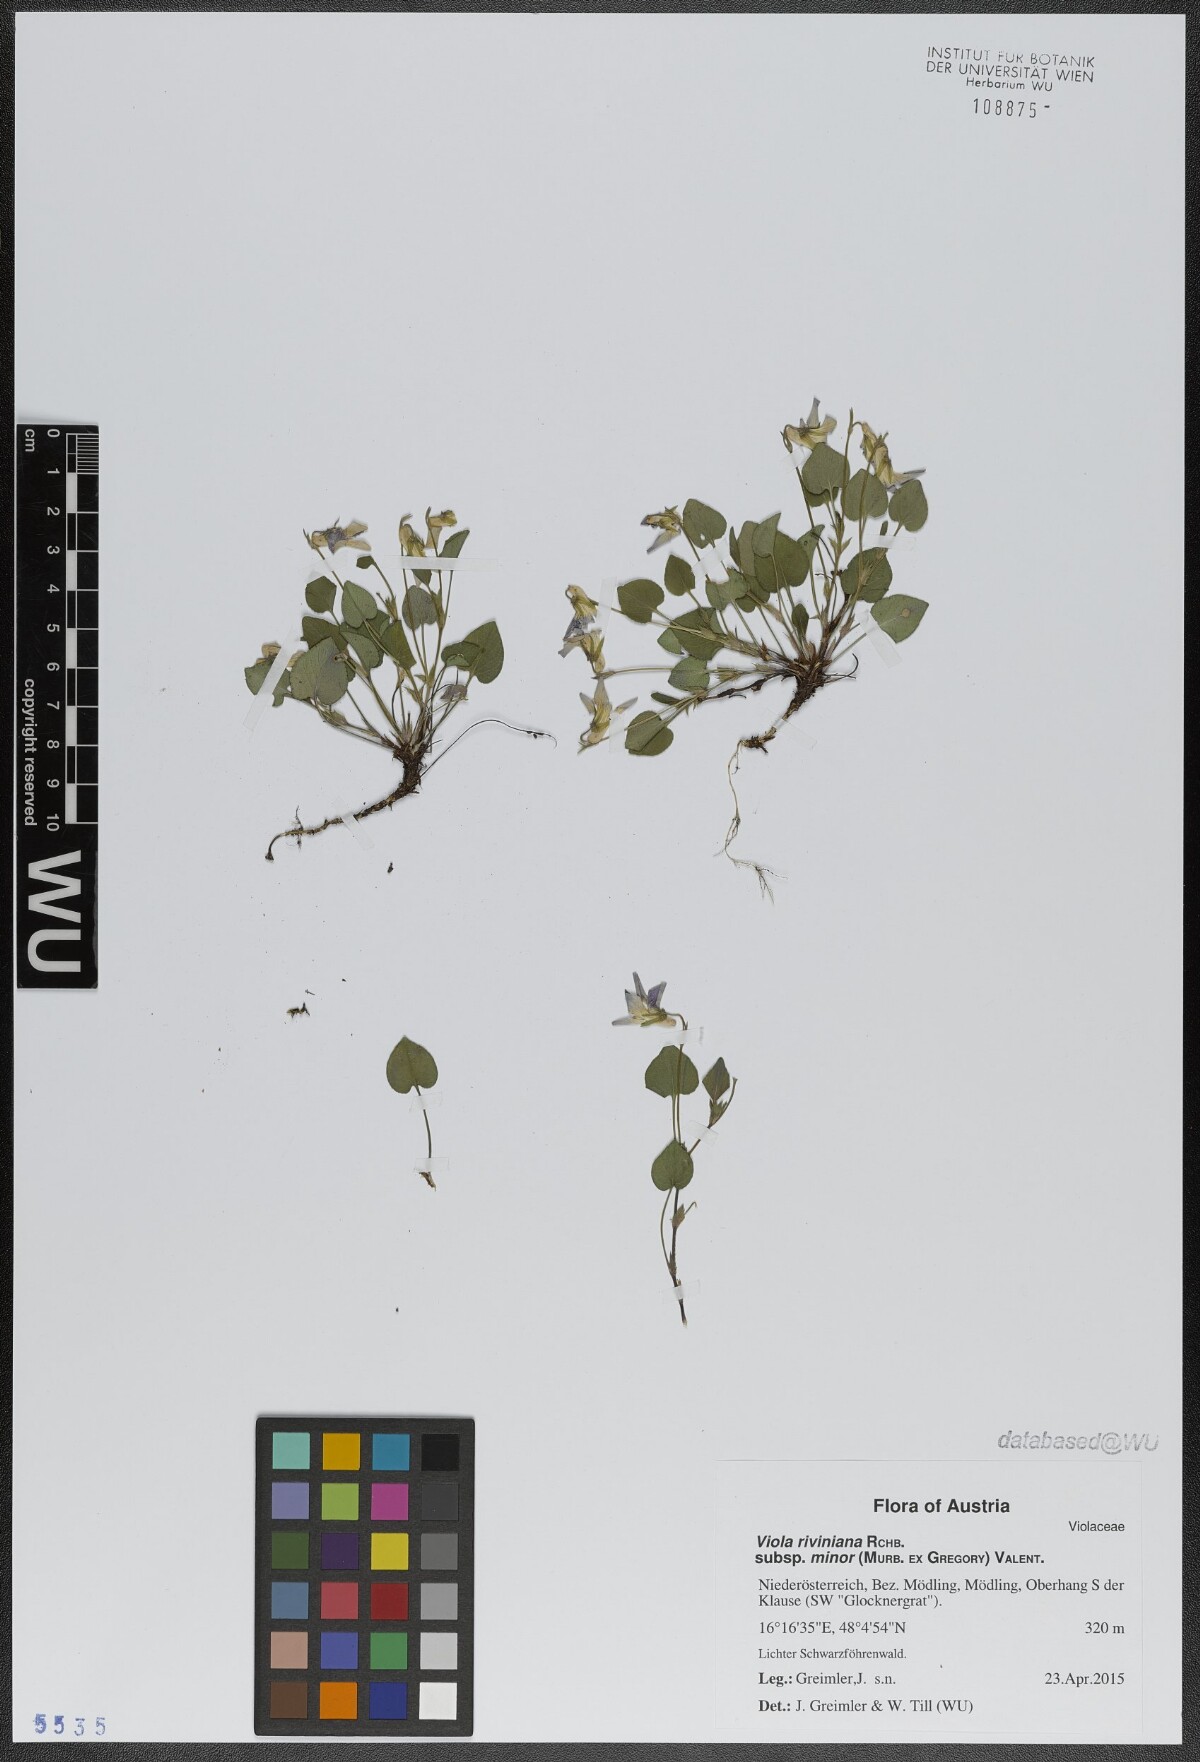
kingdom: Plantae
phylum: Tracheophyta
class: Magnoliopsida
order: Malpighiales
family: Violaceae
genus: Viola
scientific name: Viola riviniana
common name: Common dog-violet
